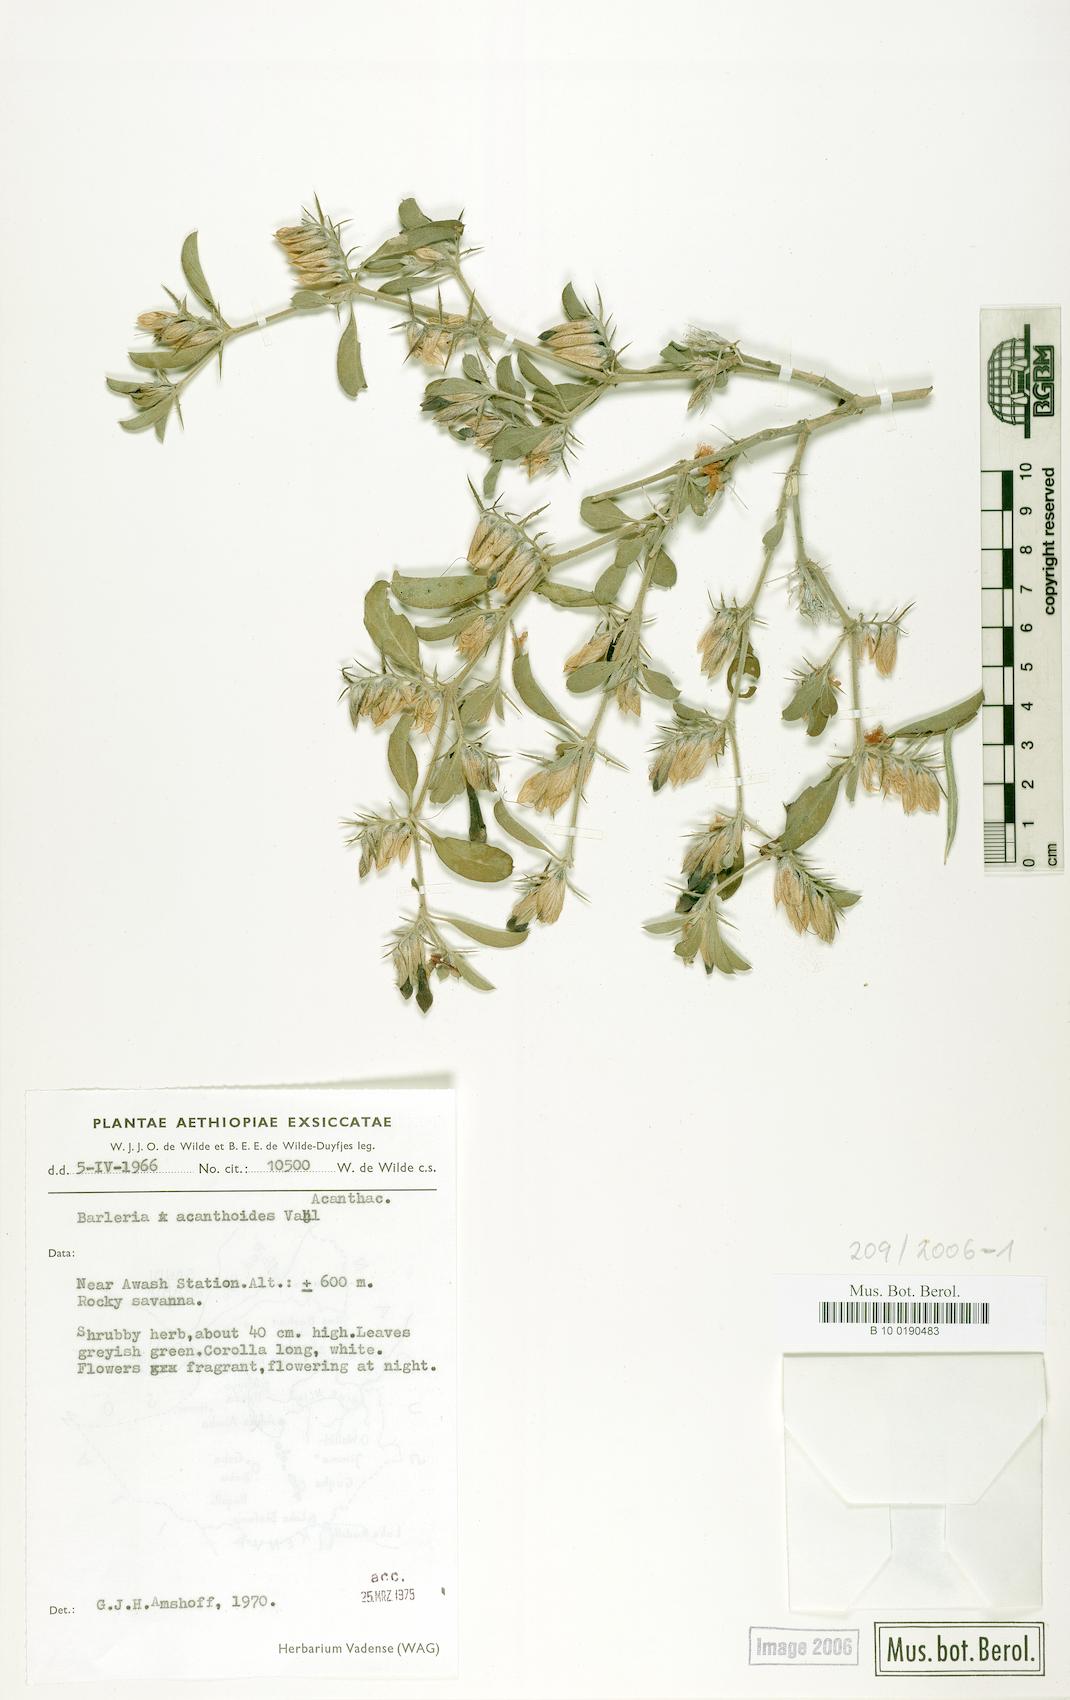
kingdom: Plantae
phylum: Tracheophyta
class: Magnoliopsida
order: Lamiales
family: Acanthaceae
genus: Barleria
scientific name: Barleria acanthoides
